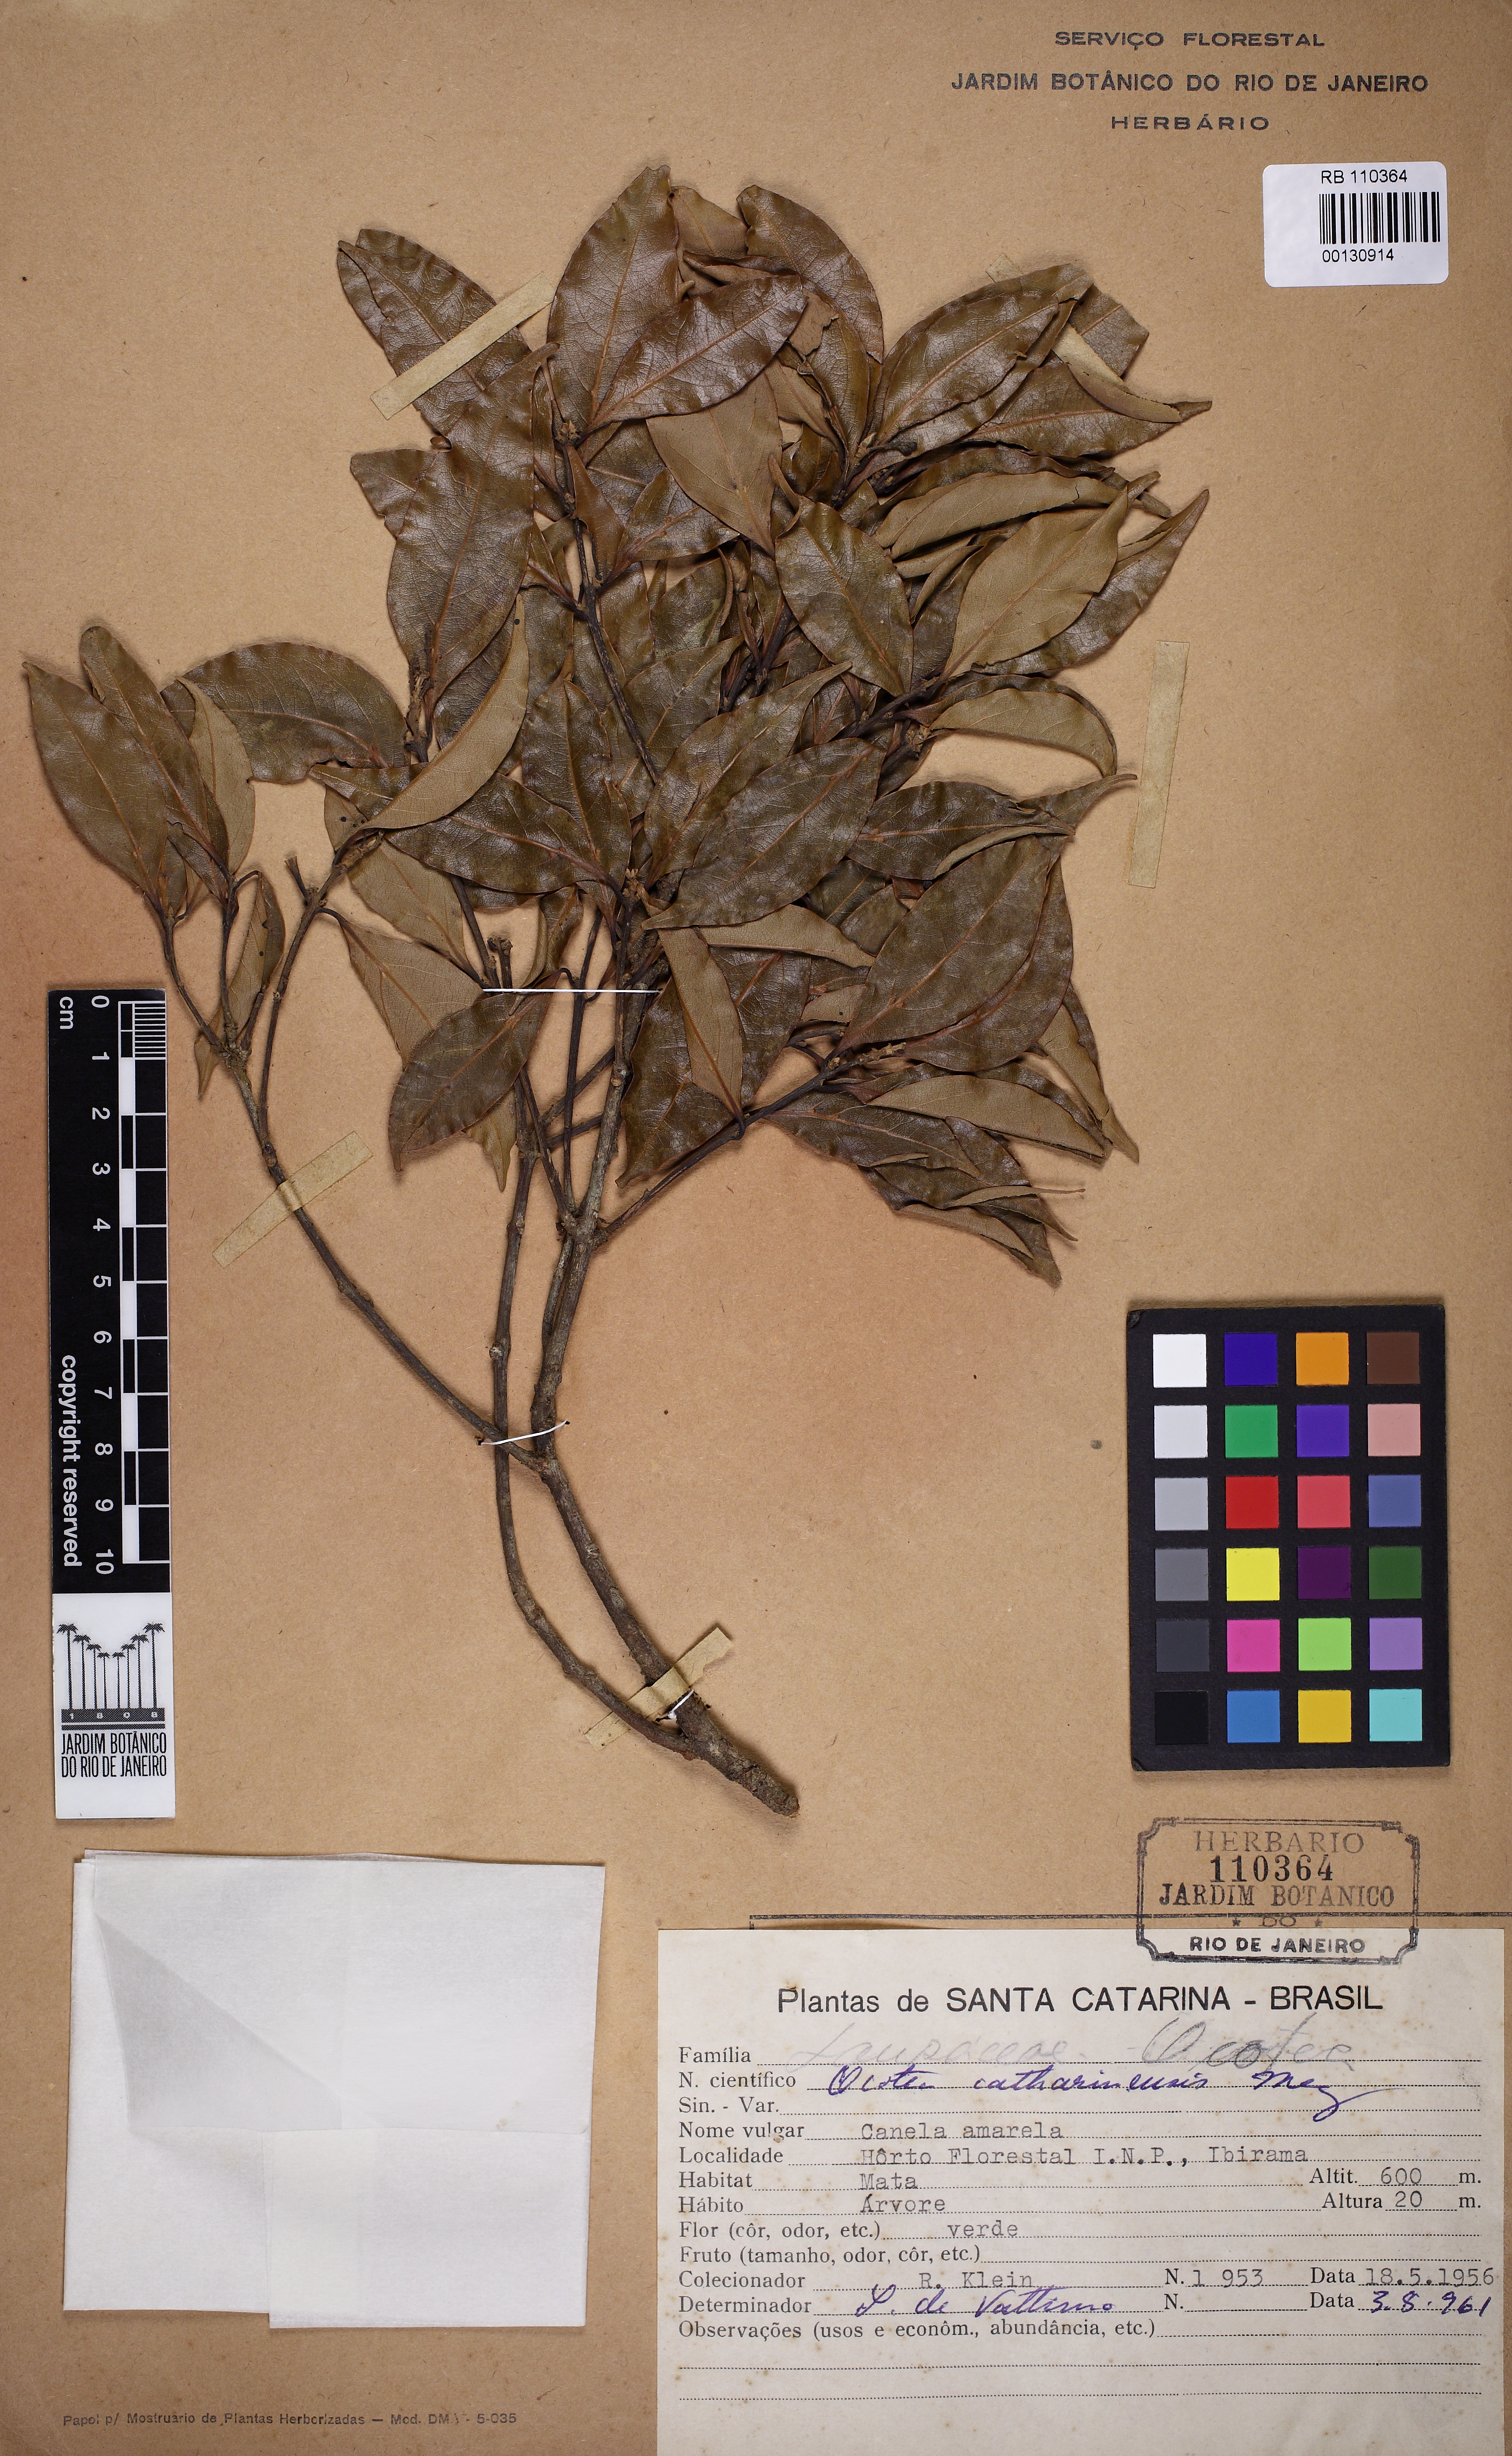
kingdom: Plantae
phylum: Tracheophyta
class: Magnoliopsida
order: Laurales
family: Lauraceae
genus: Ocotea
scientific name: Ocotea catharinensis
